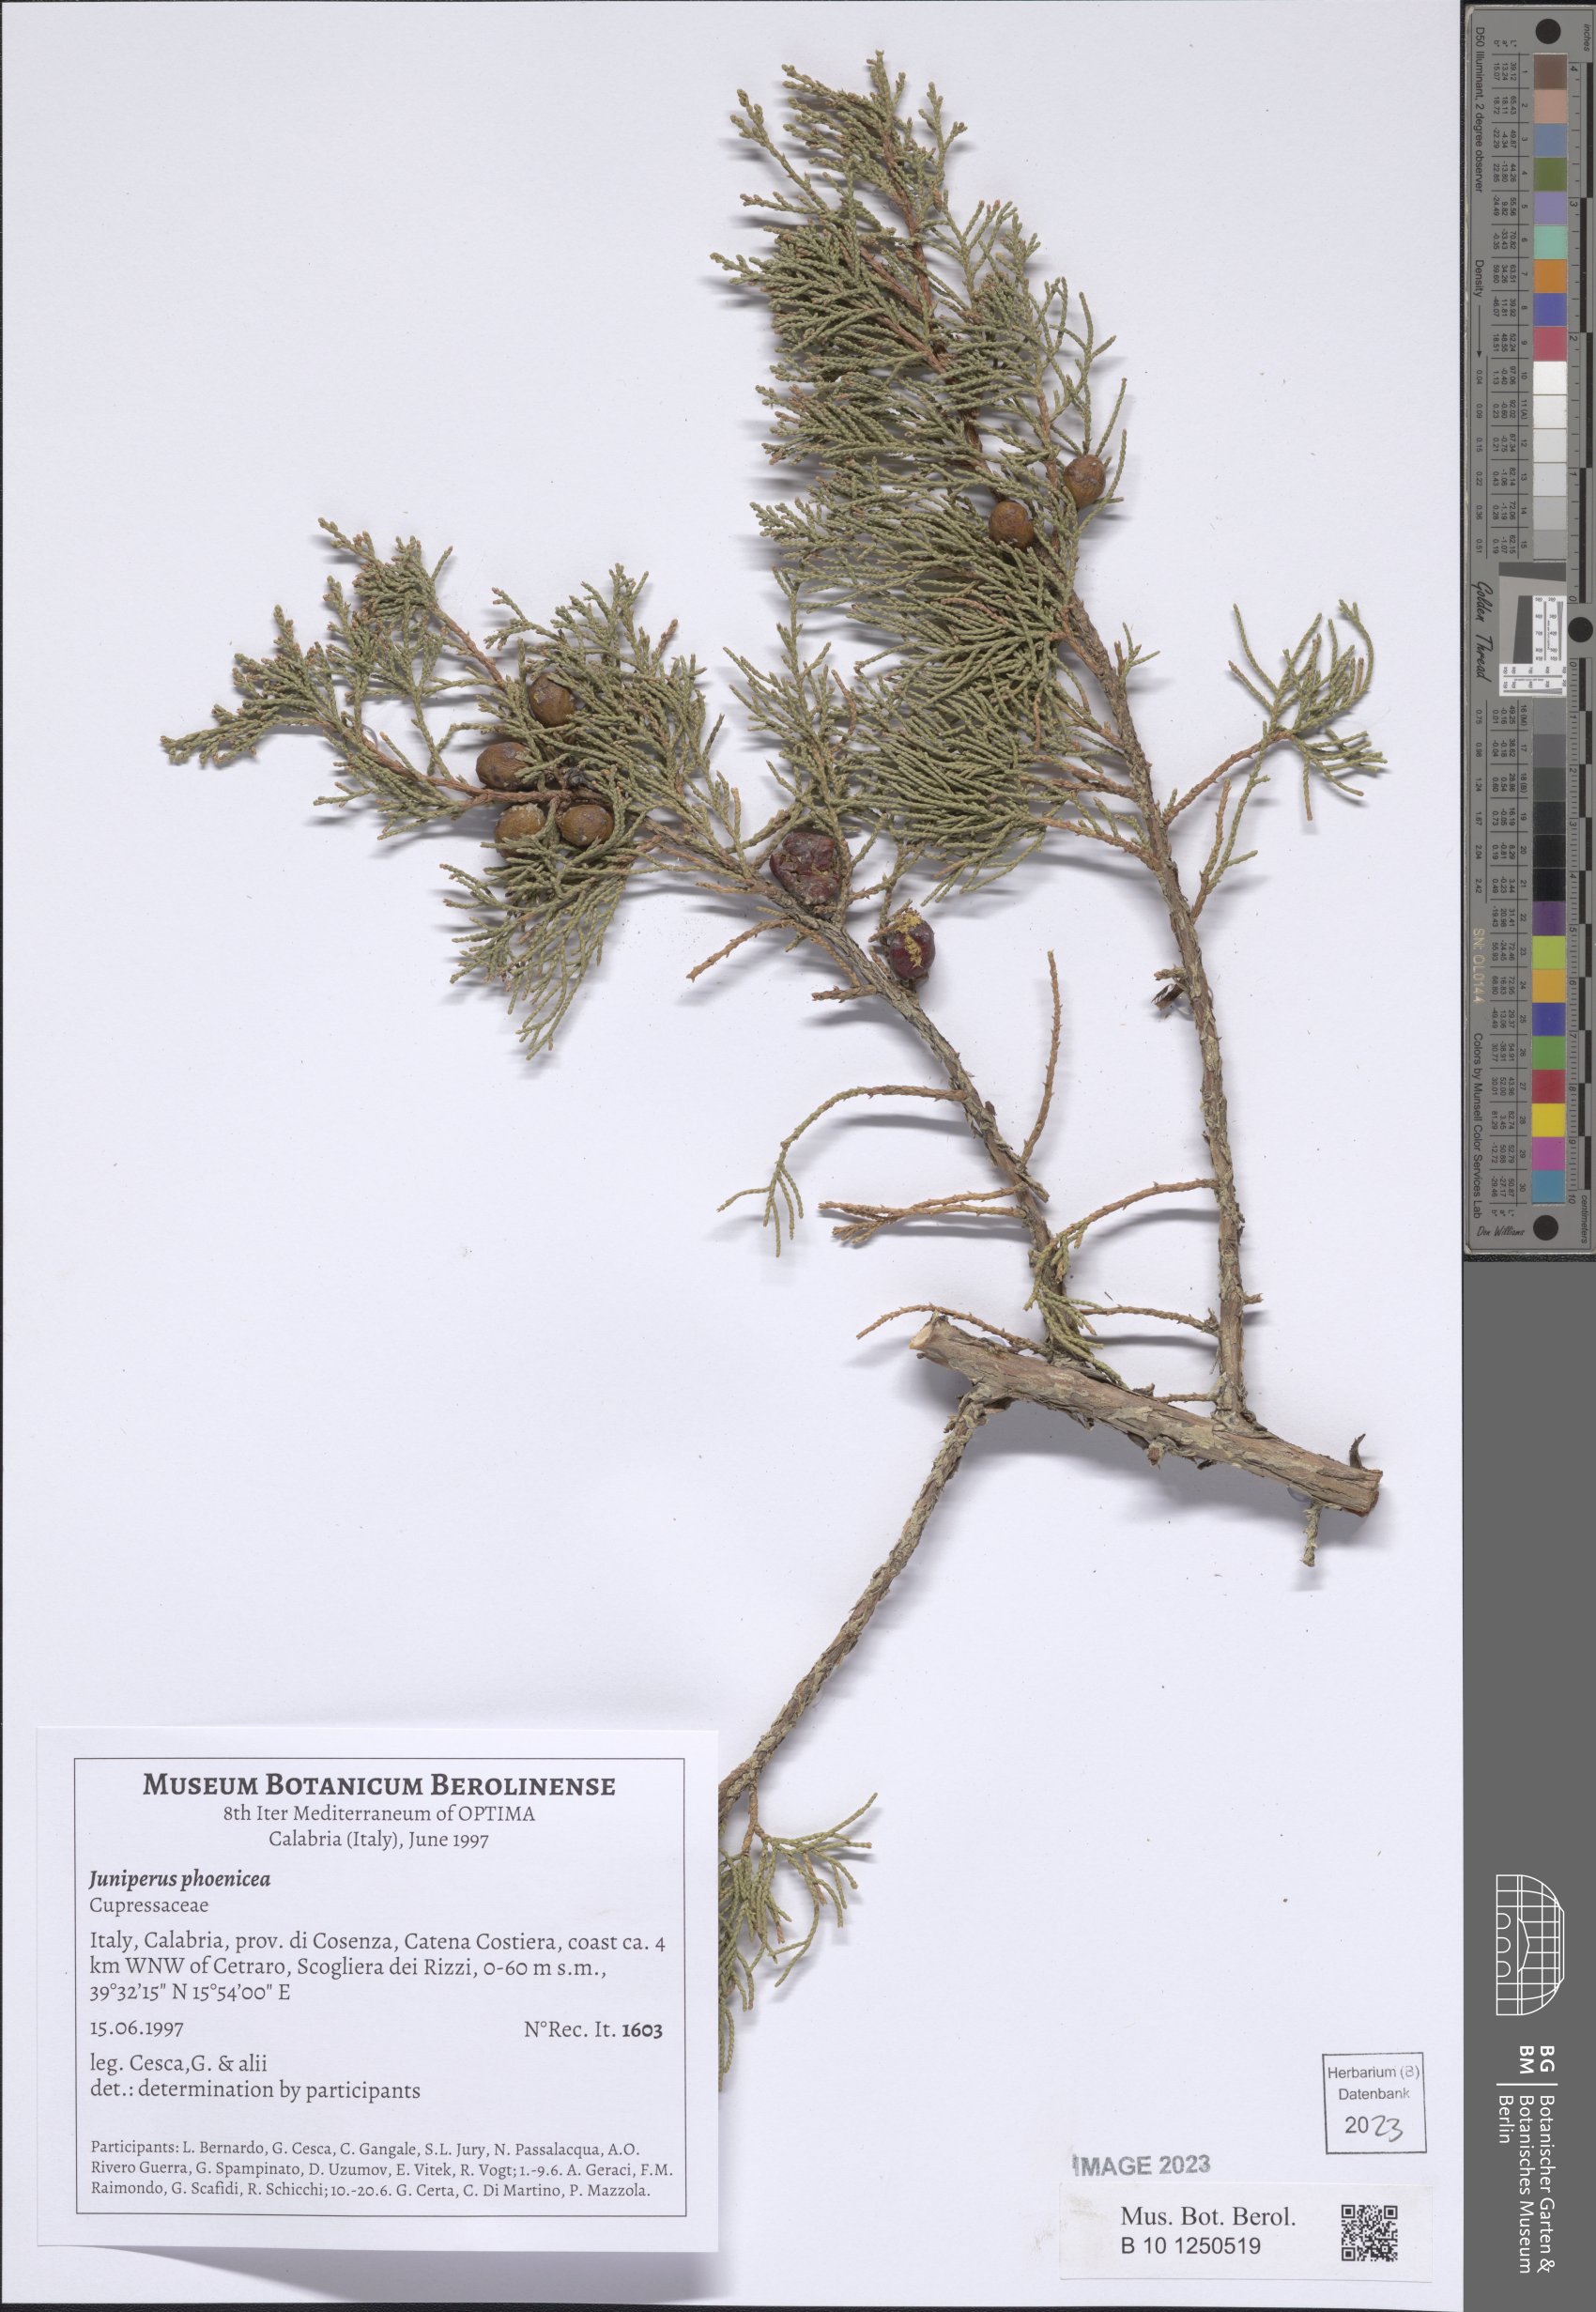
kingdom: Plantae
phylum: Tracheophyta
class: Pinopsida
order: Pinales
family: Cupressaceae
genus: Juniperus
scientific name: Juniperus phoenicea
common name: Phoenician juniper
